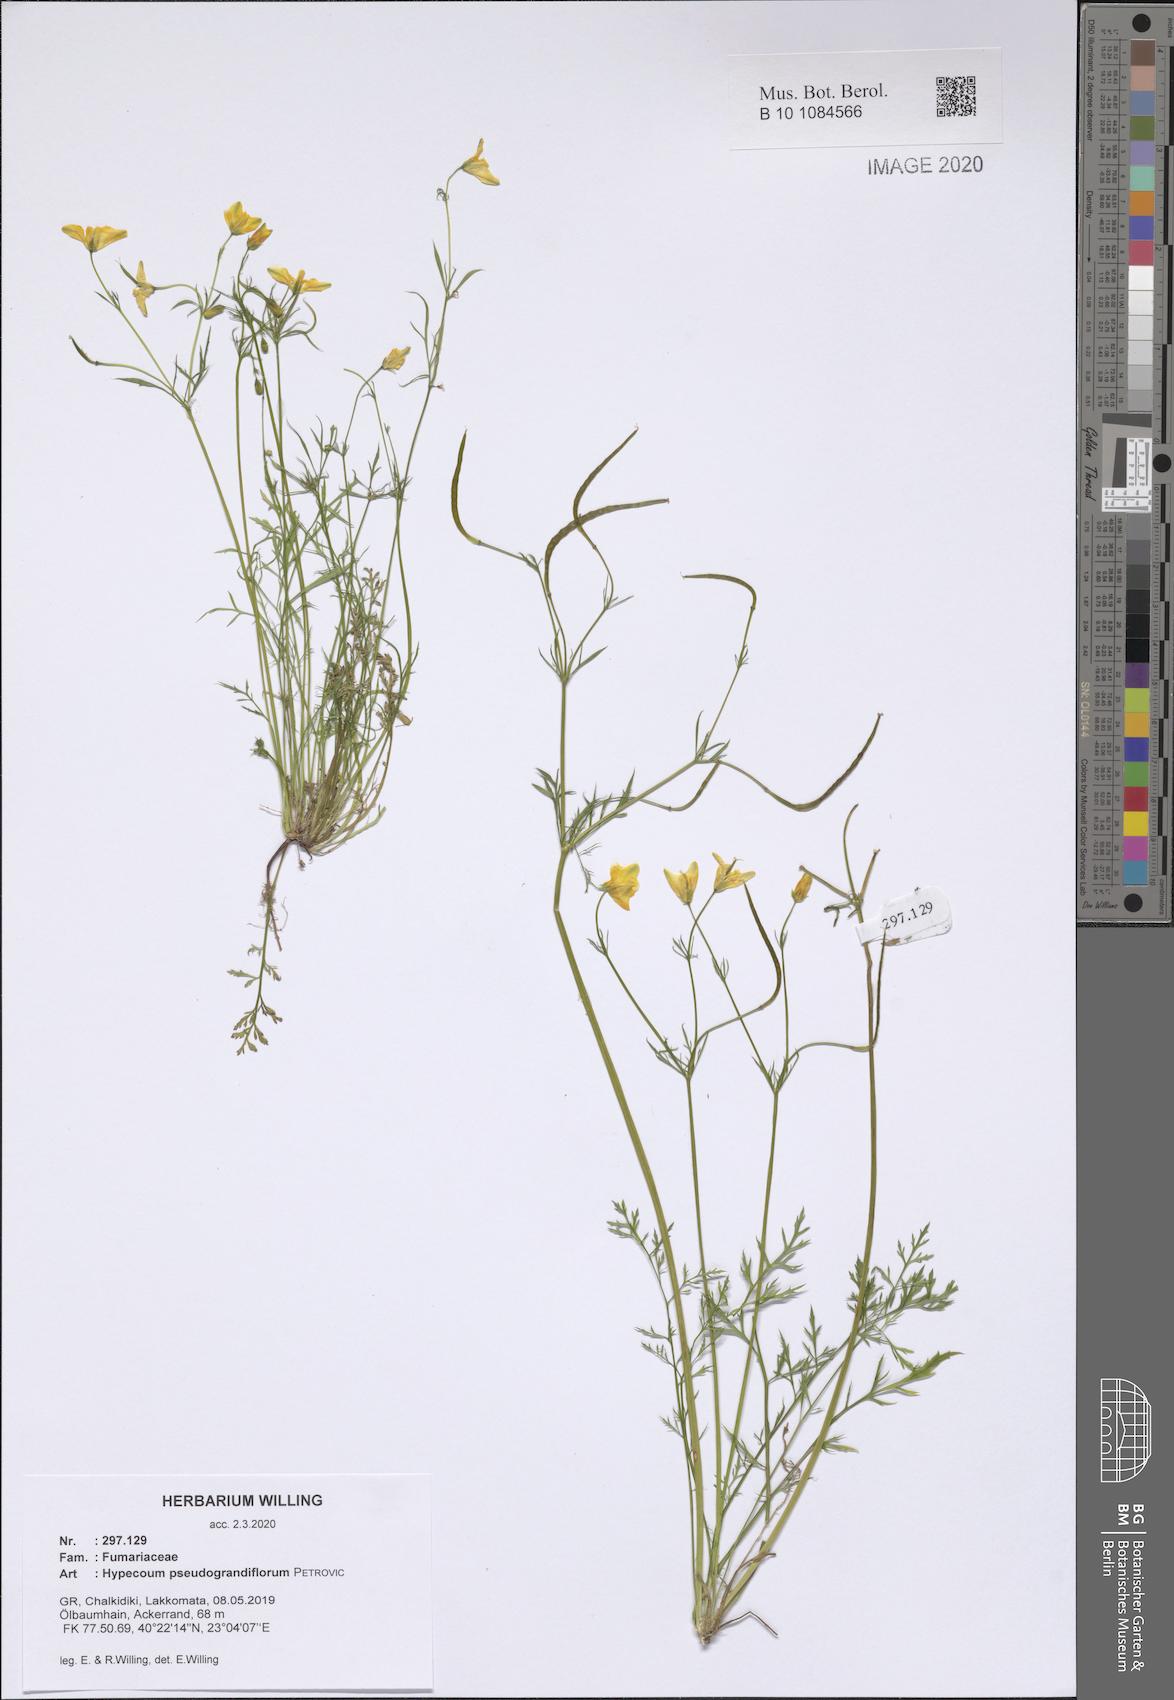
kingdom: Plantae
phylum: Tracheophyta
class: Magnoliopsida
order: Ranunculales
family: Papaveraceae
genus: Hypecoum
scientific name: Hypecoum pseudograndiflorum
